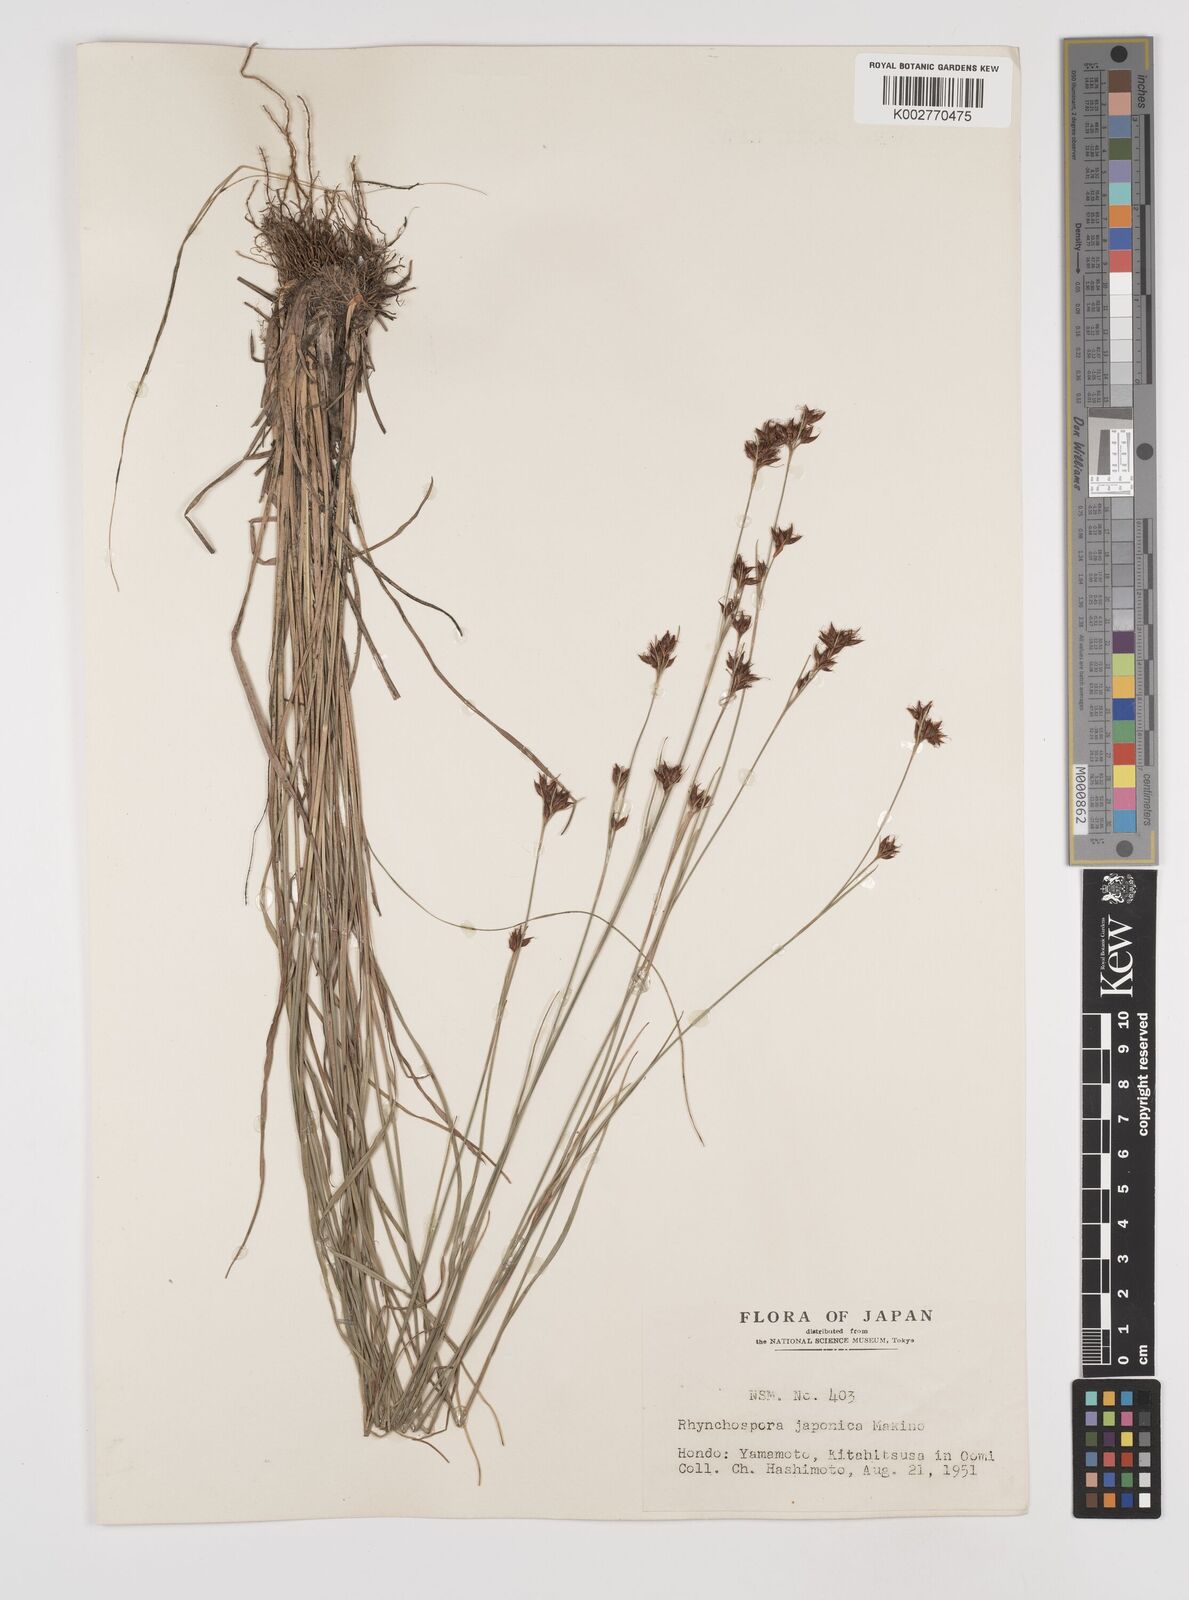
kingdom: Plantae
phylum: Tracheophyta
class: Liliopsida
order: Poales
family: Cyperaceae
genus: Rhynchospora
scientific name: Rhynchospora chinensis
